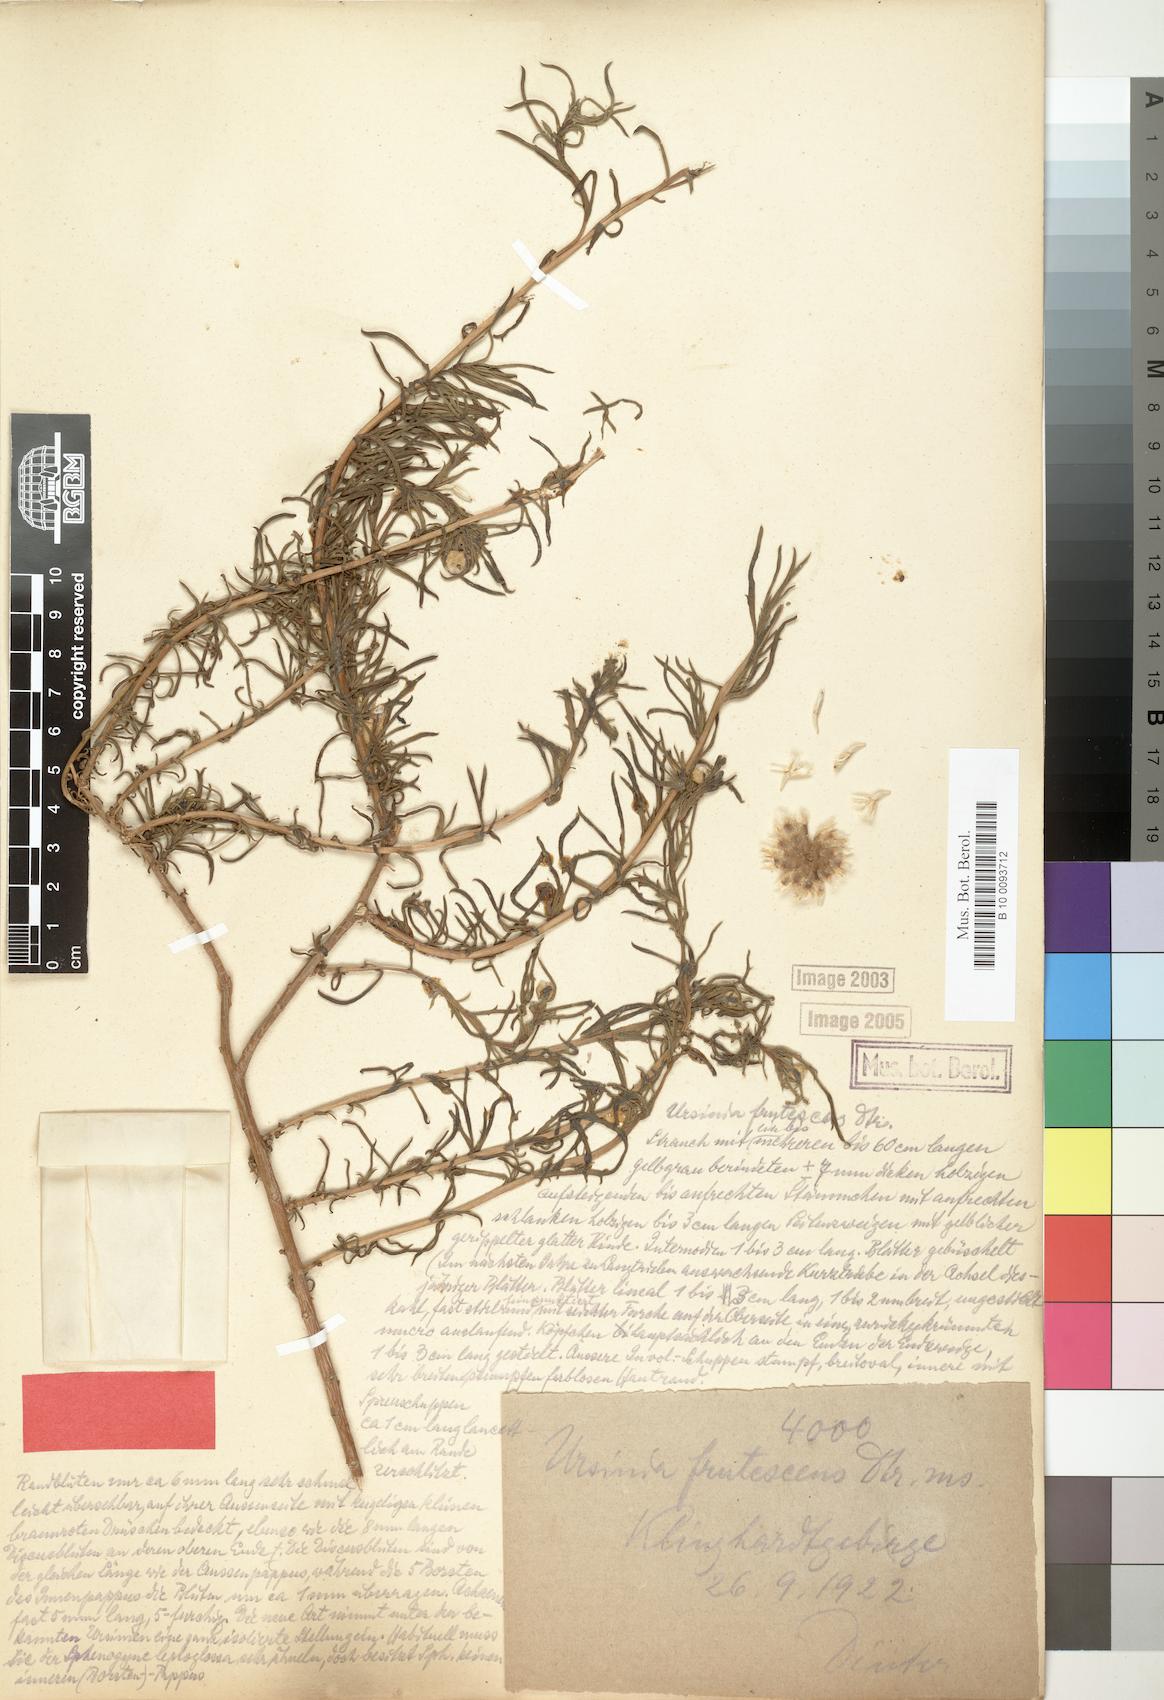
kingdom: Plantae
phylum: Tracheophyta
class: Magnoliopsida
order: Asterales
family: Asteraceae
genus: Ursinia
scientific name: Ursinia frutescens
